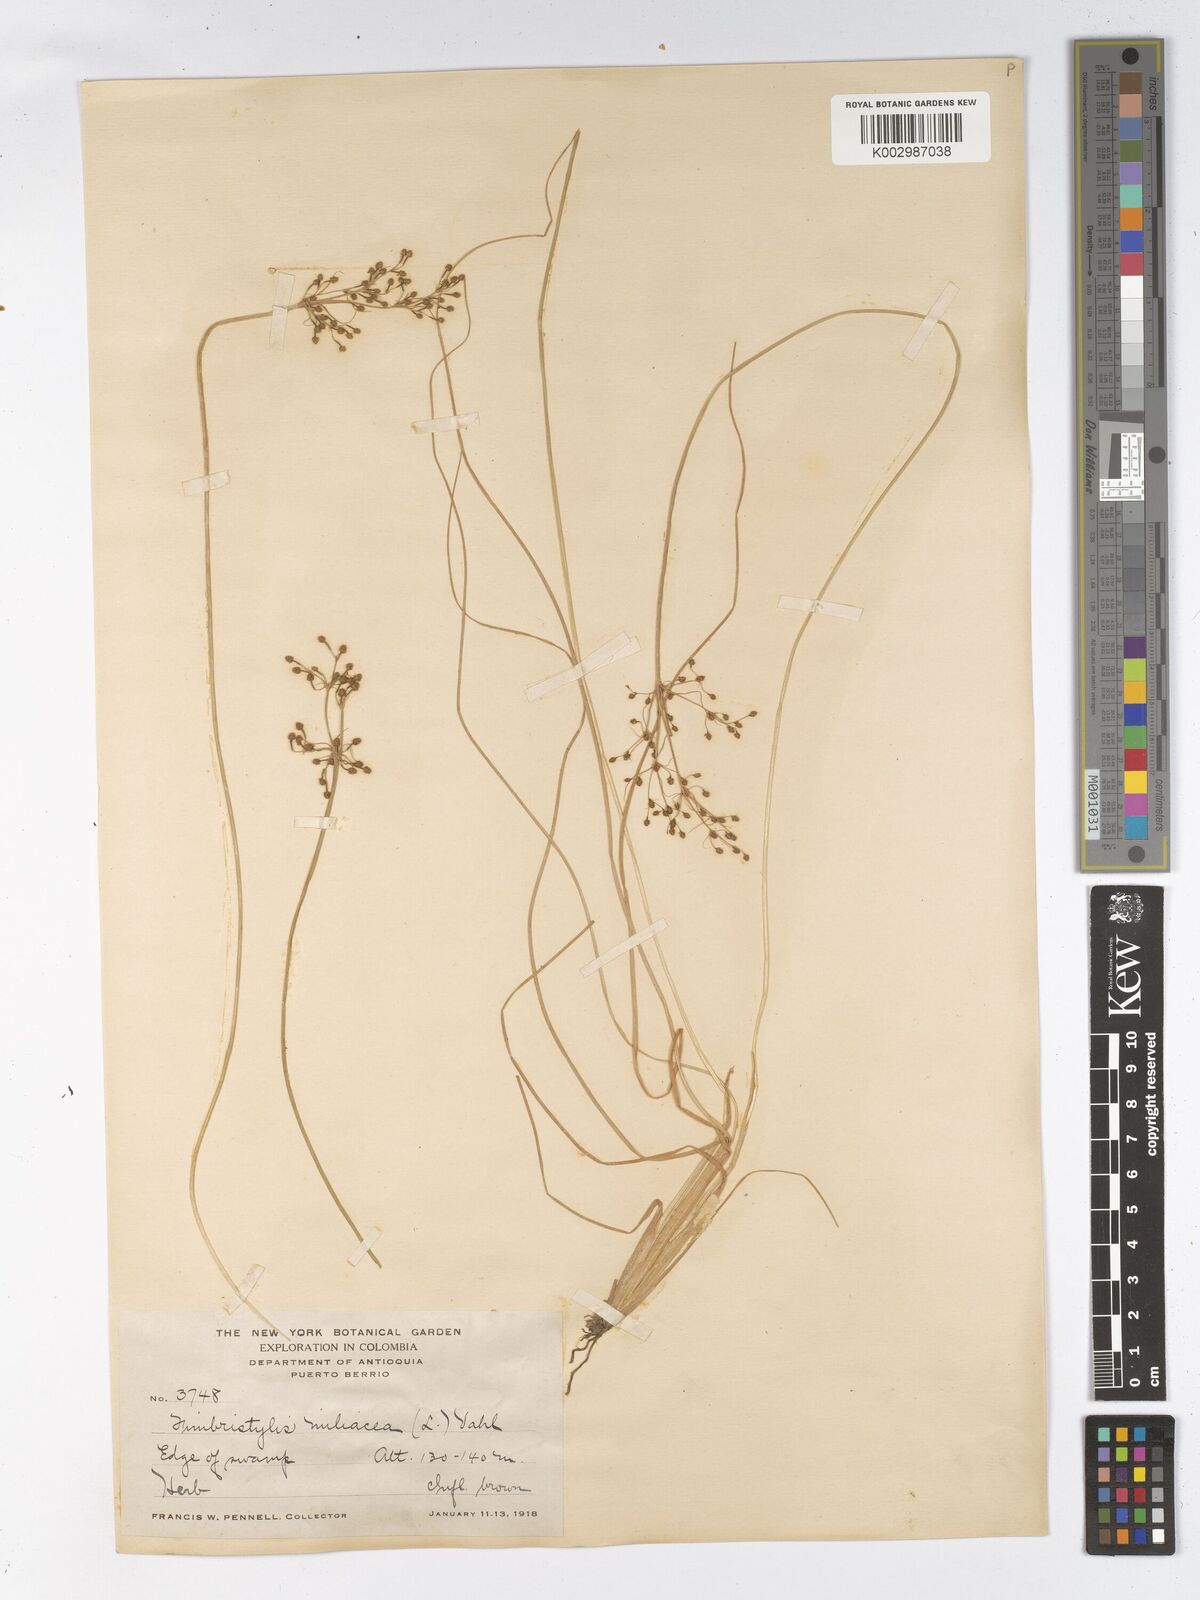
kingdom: Plantae
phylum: Tracheophyta
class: Liliopsida
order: Poales
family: Cyperaceae
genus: Fimbristylis
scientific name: Fimbristylis littoralis
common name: Fimbry
